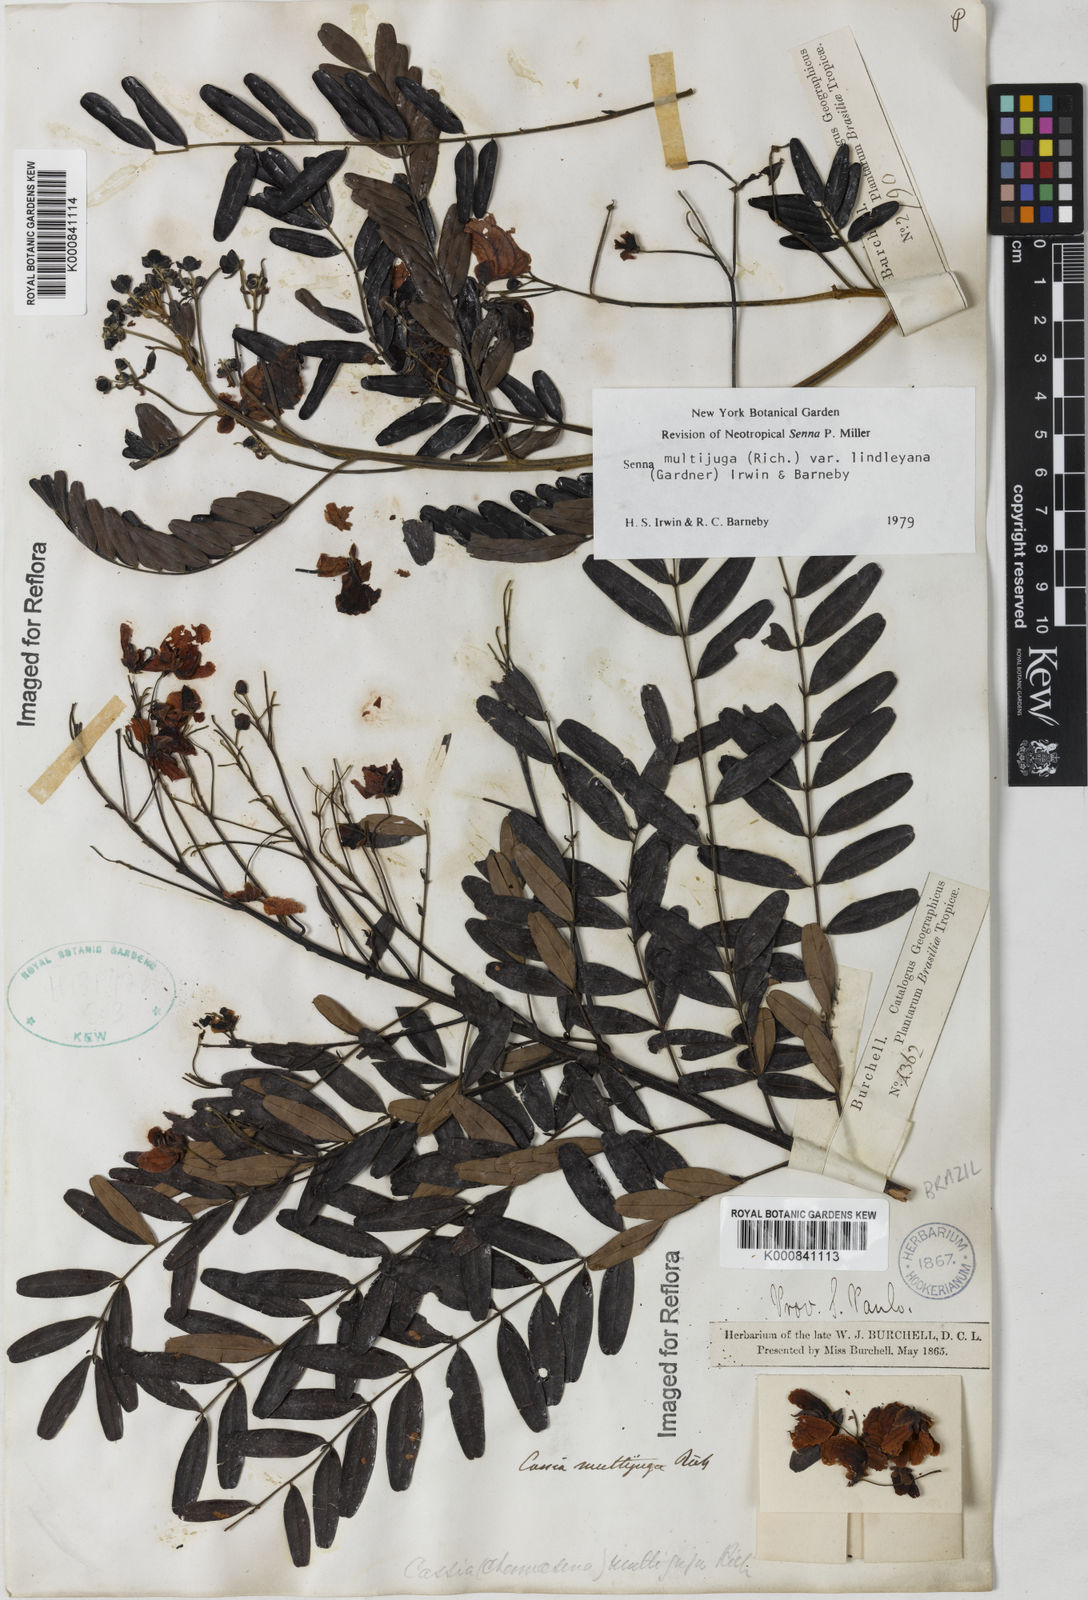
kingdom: Plantae
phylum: Tracheophyta
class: Magnoliopsida
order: Fabales
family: Fabaceae
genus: Senna
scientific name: Senna multijuga
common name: False sicklepod
